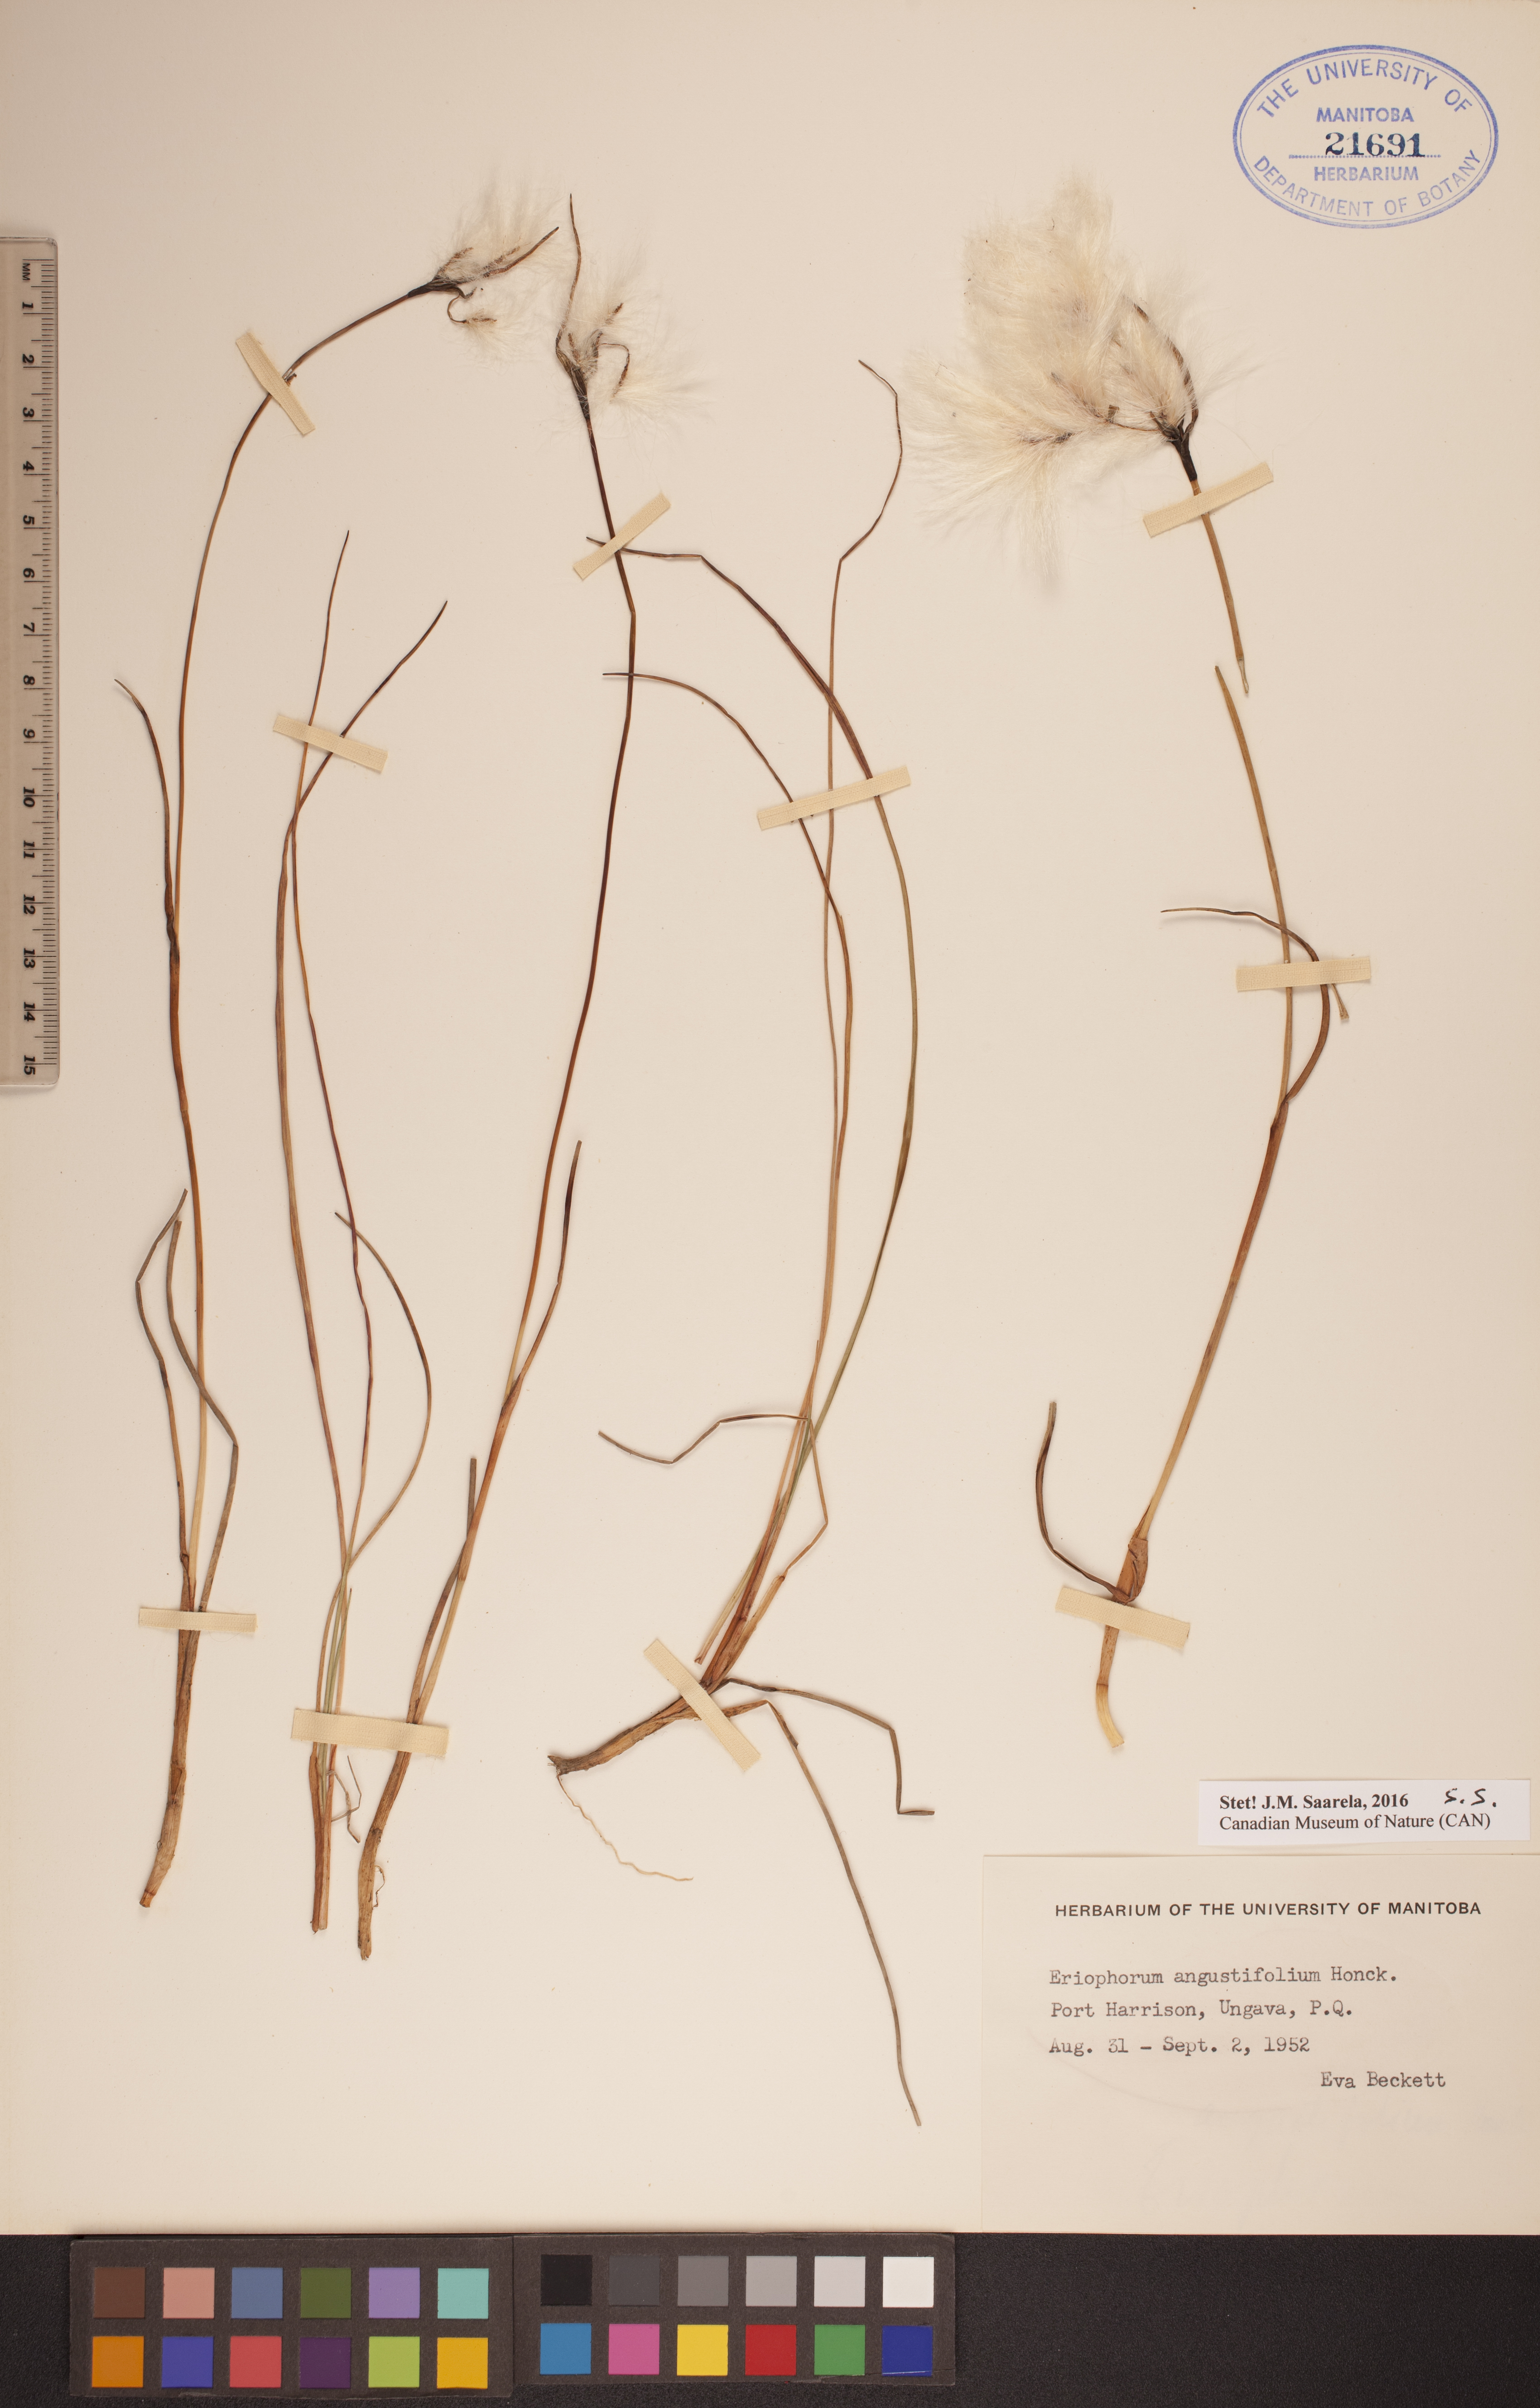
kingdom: Plantae
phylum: Tracheophyta
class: Liliopsida
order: Poales
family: Cyperaceae
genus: Eriophorum
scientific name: Eriophorum angustifolium
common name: Common cottongrass
